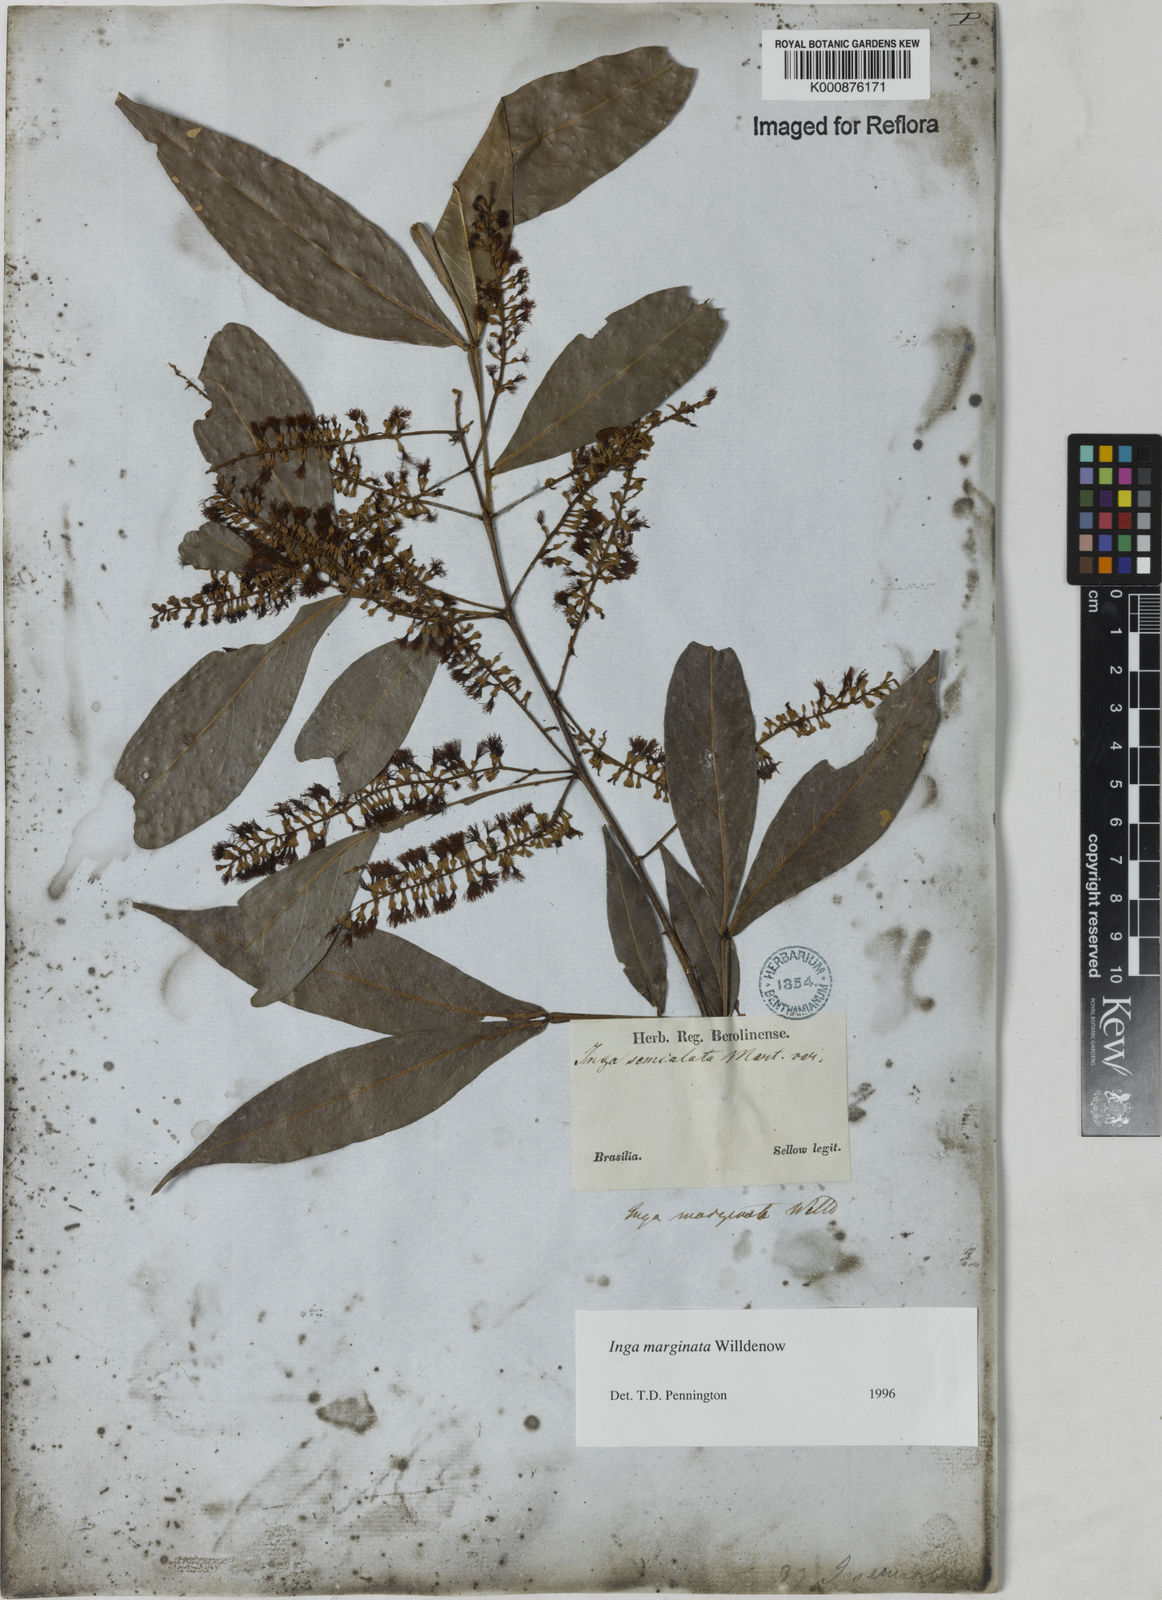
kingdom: Plantae
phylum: Tracheophyta
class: Magnoliopsida
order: Fabales
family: Fabaceae
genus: Inga
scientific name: Inga marginata
